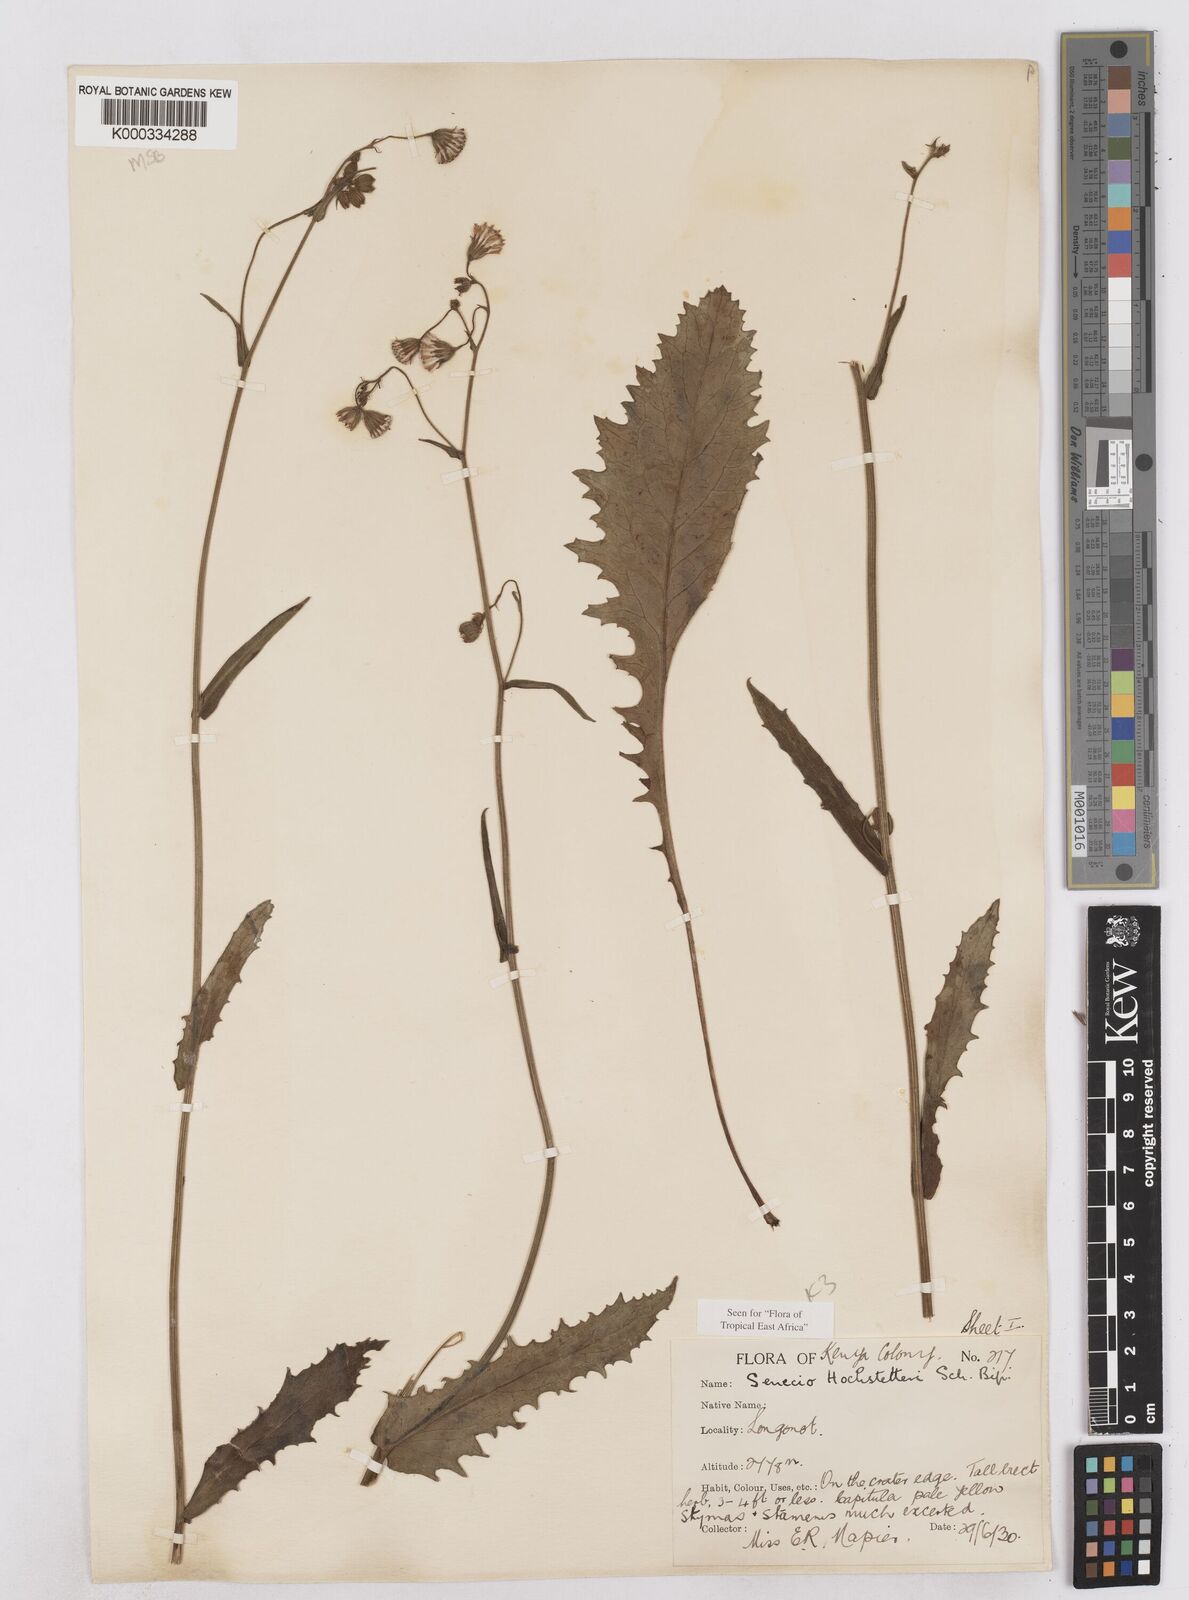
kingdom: Plantae
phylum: Tracheophyta
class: Magnoliopsida
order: Asterales
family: Asteraceae
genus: Senecio
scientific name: Senecio hochstetteri
